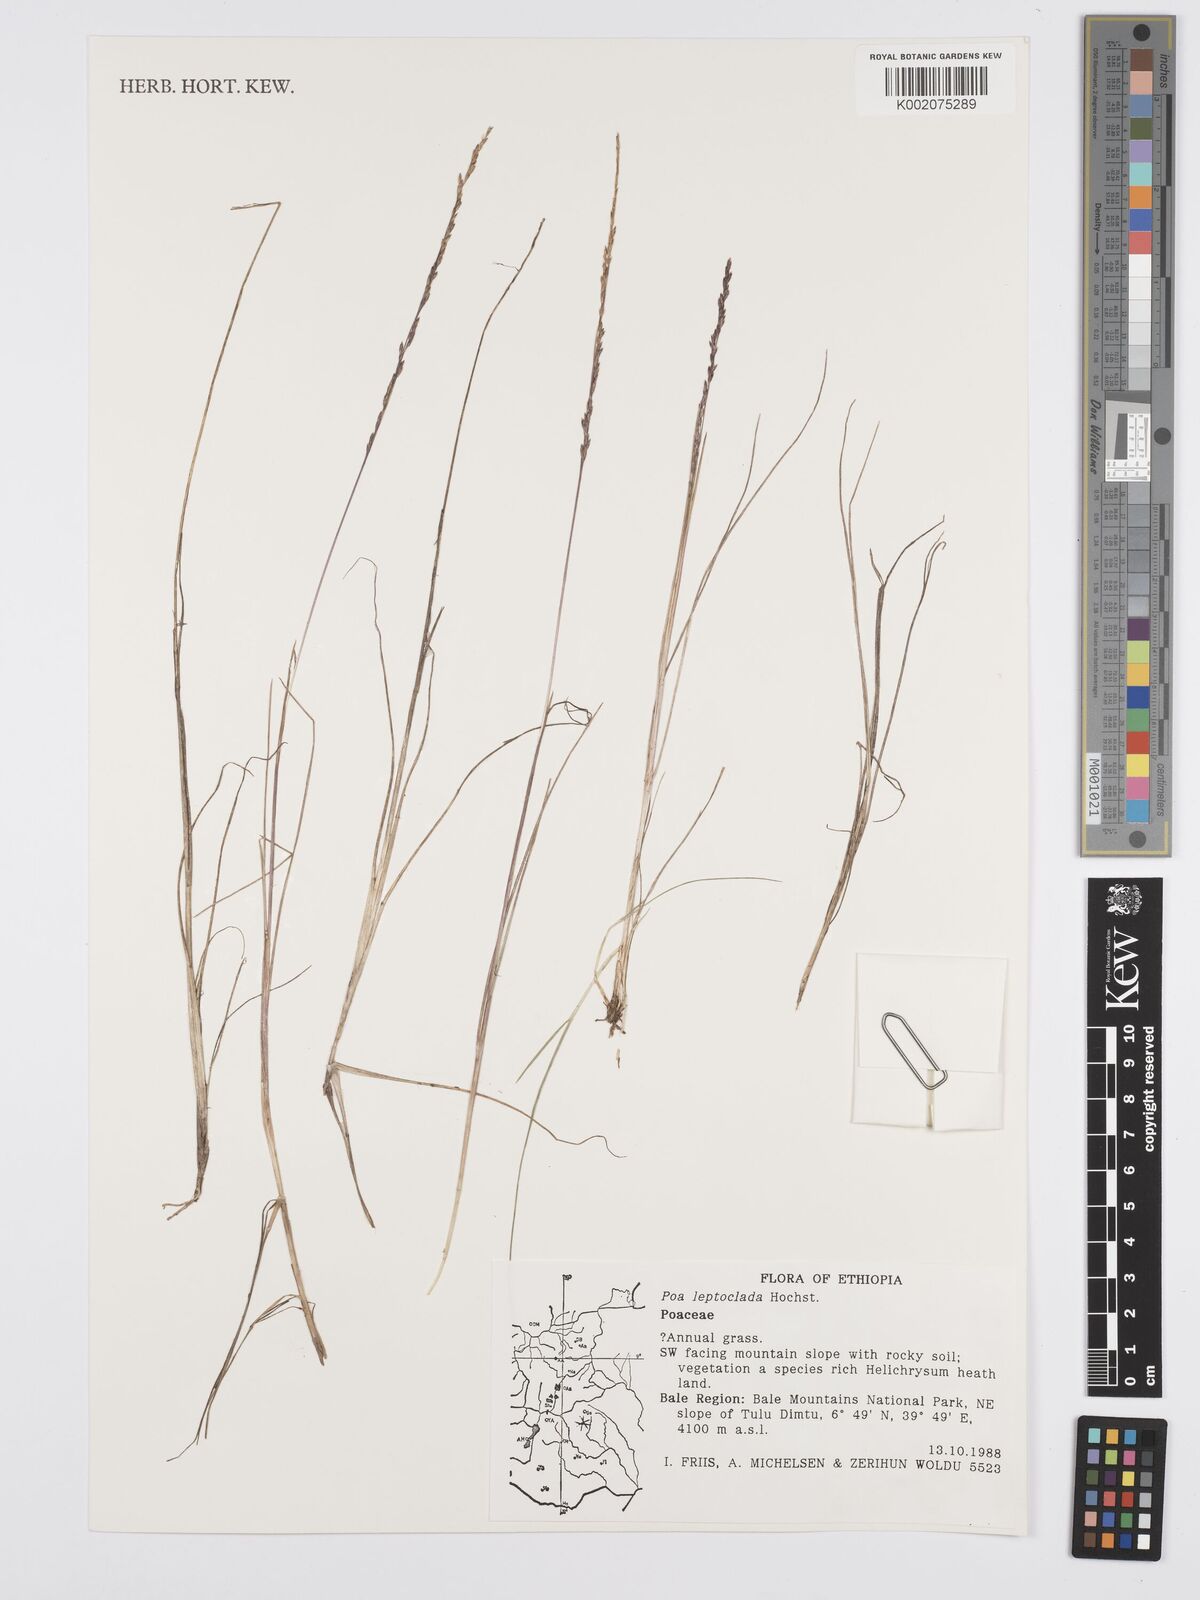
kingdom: Plantae
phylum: Tracheophyta
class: Liliopsida
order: Poales
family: Poaceae
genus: Poa
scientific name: Poa leptoclada
